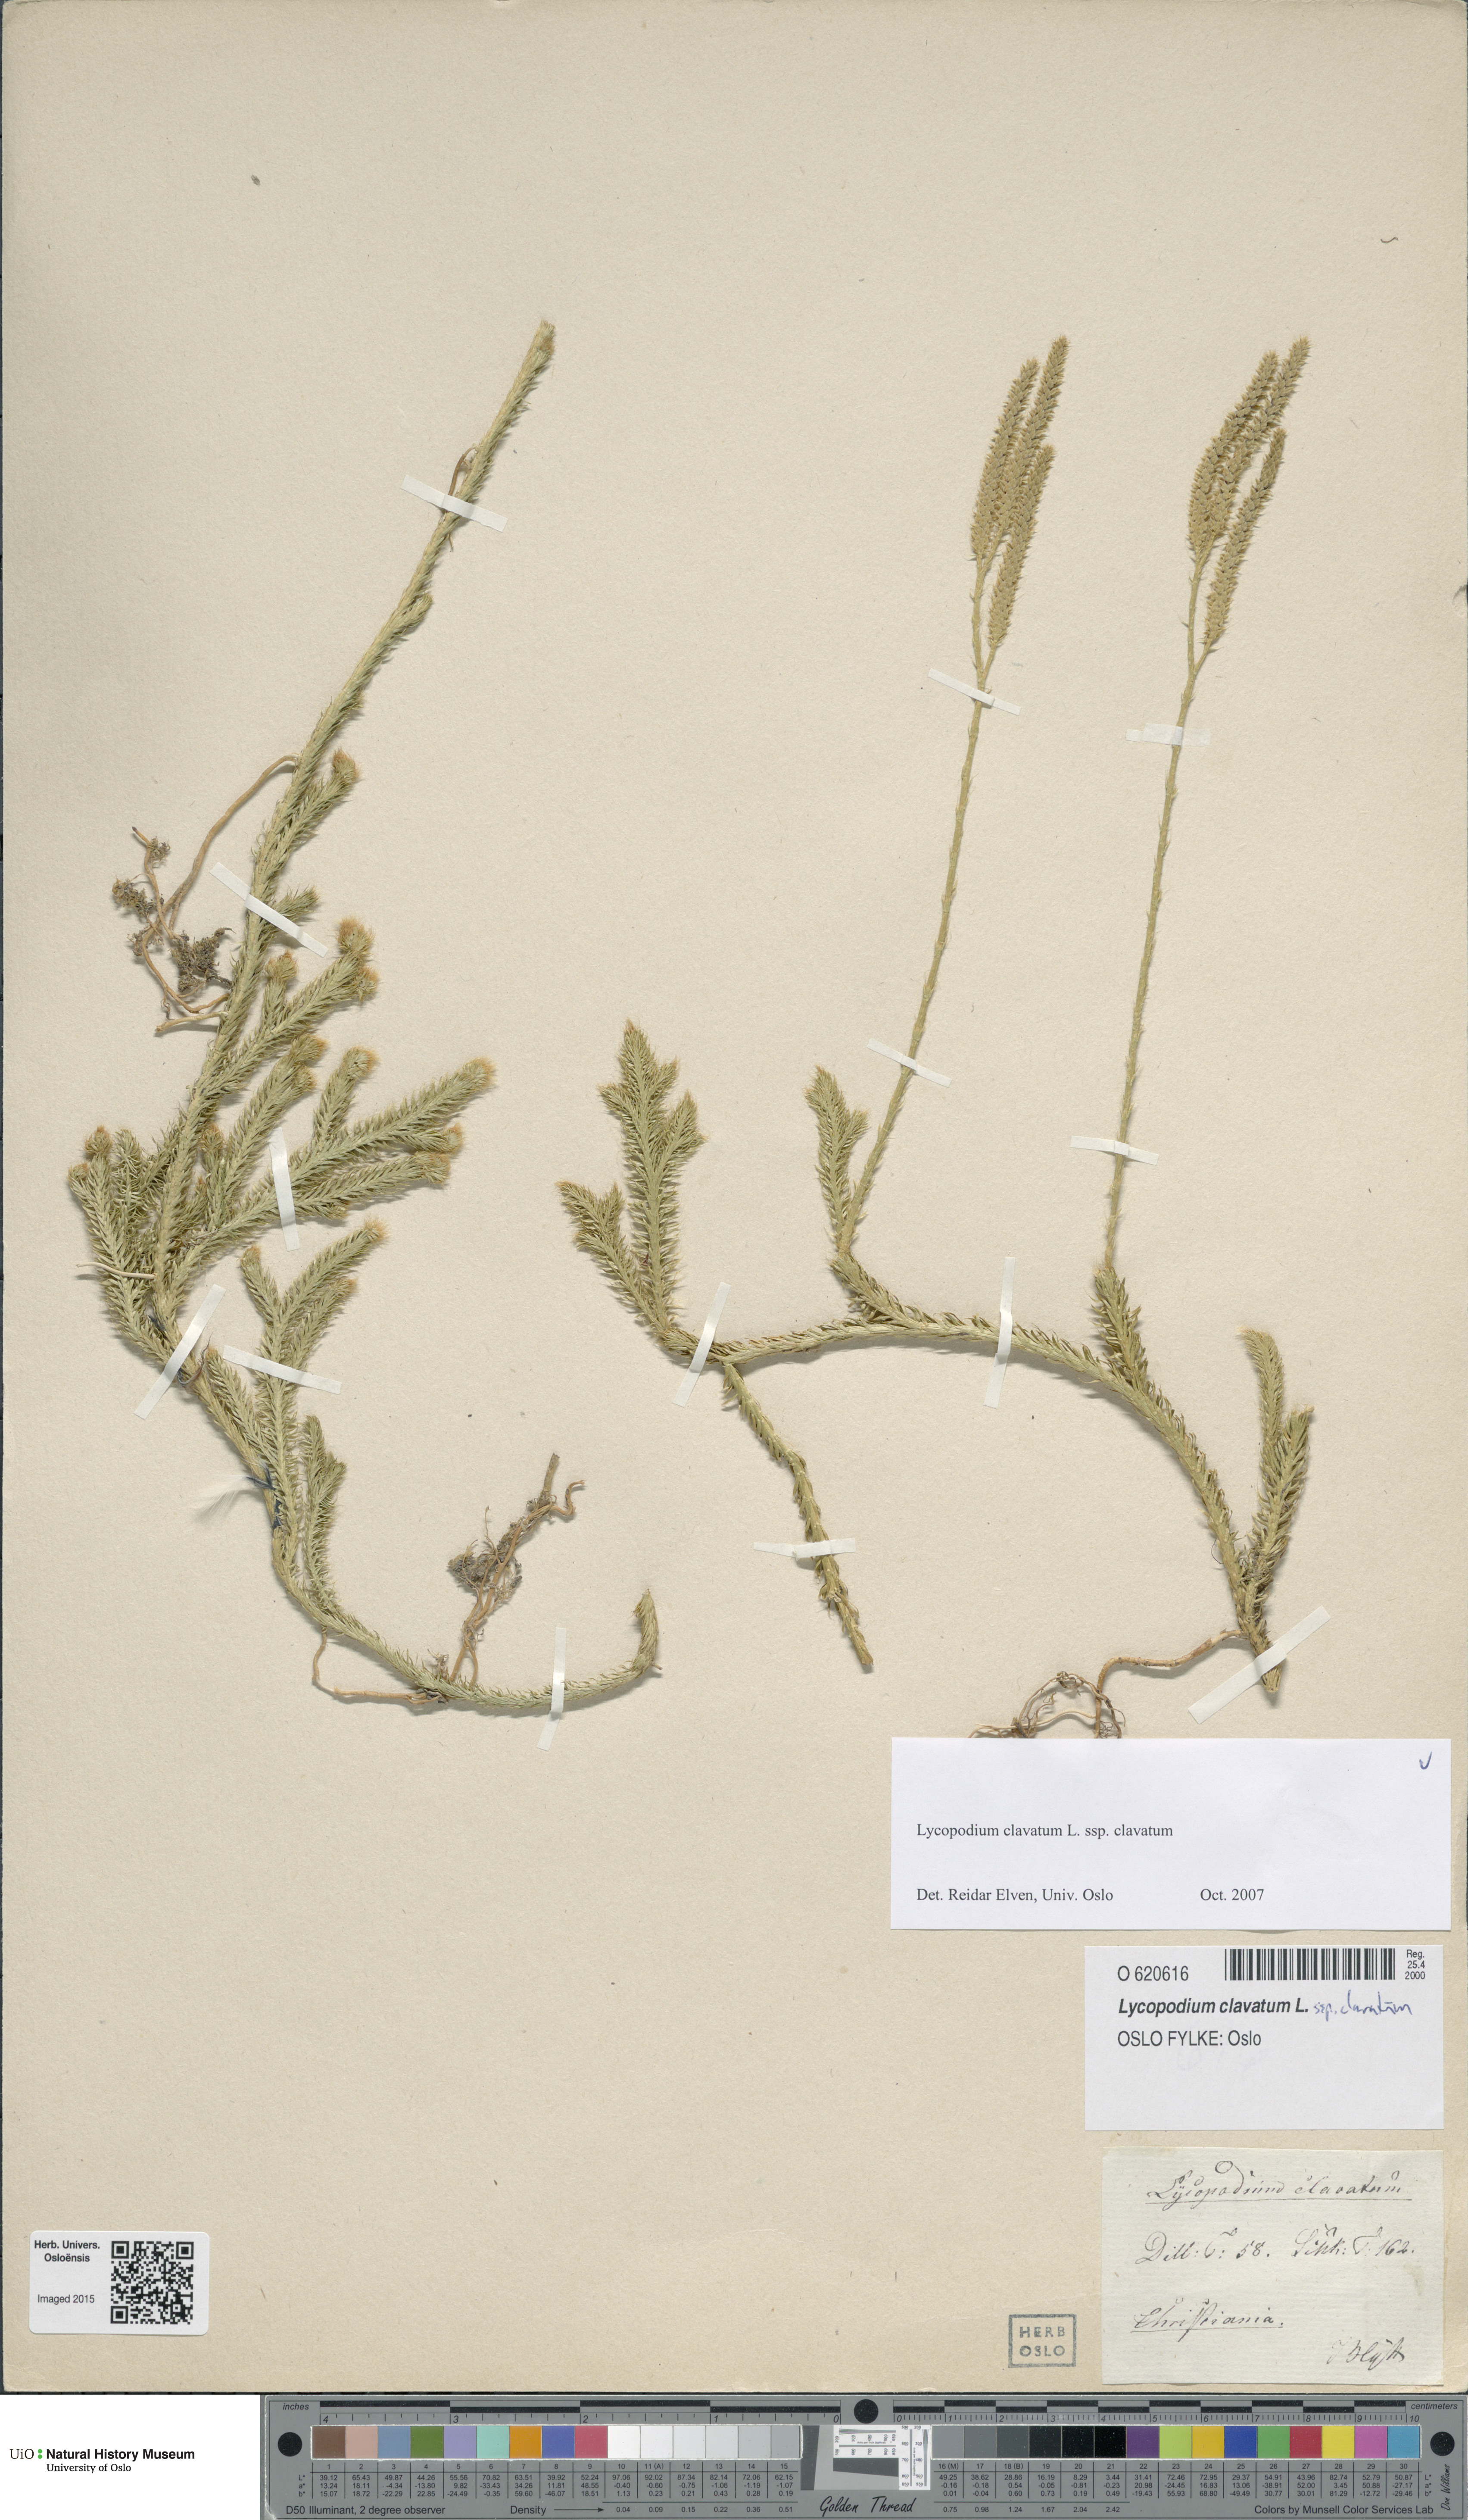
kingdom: Plantae
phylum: Tracheophyta
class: Lycopodiopsida
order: Lycopodiales
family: Lycopodiaceae
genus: Lycopodium
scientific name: Lycopodium clavatum
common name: Stag's-horn clubmoss
